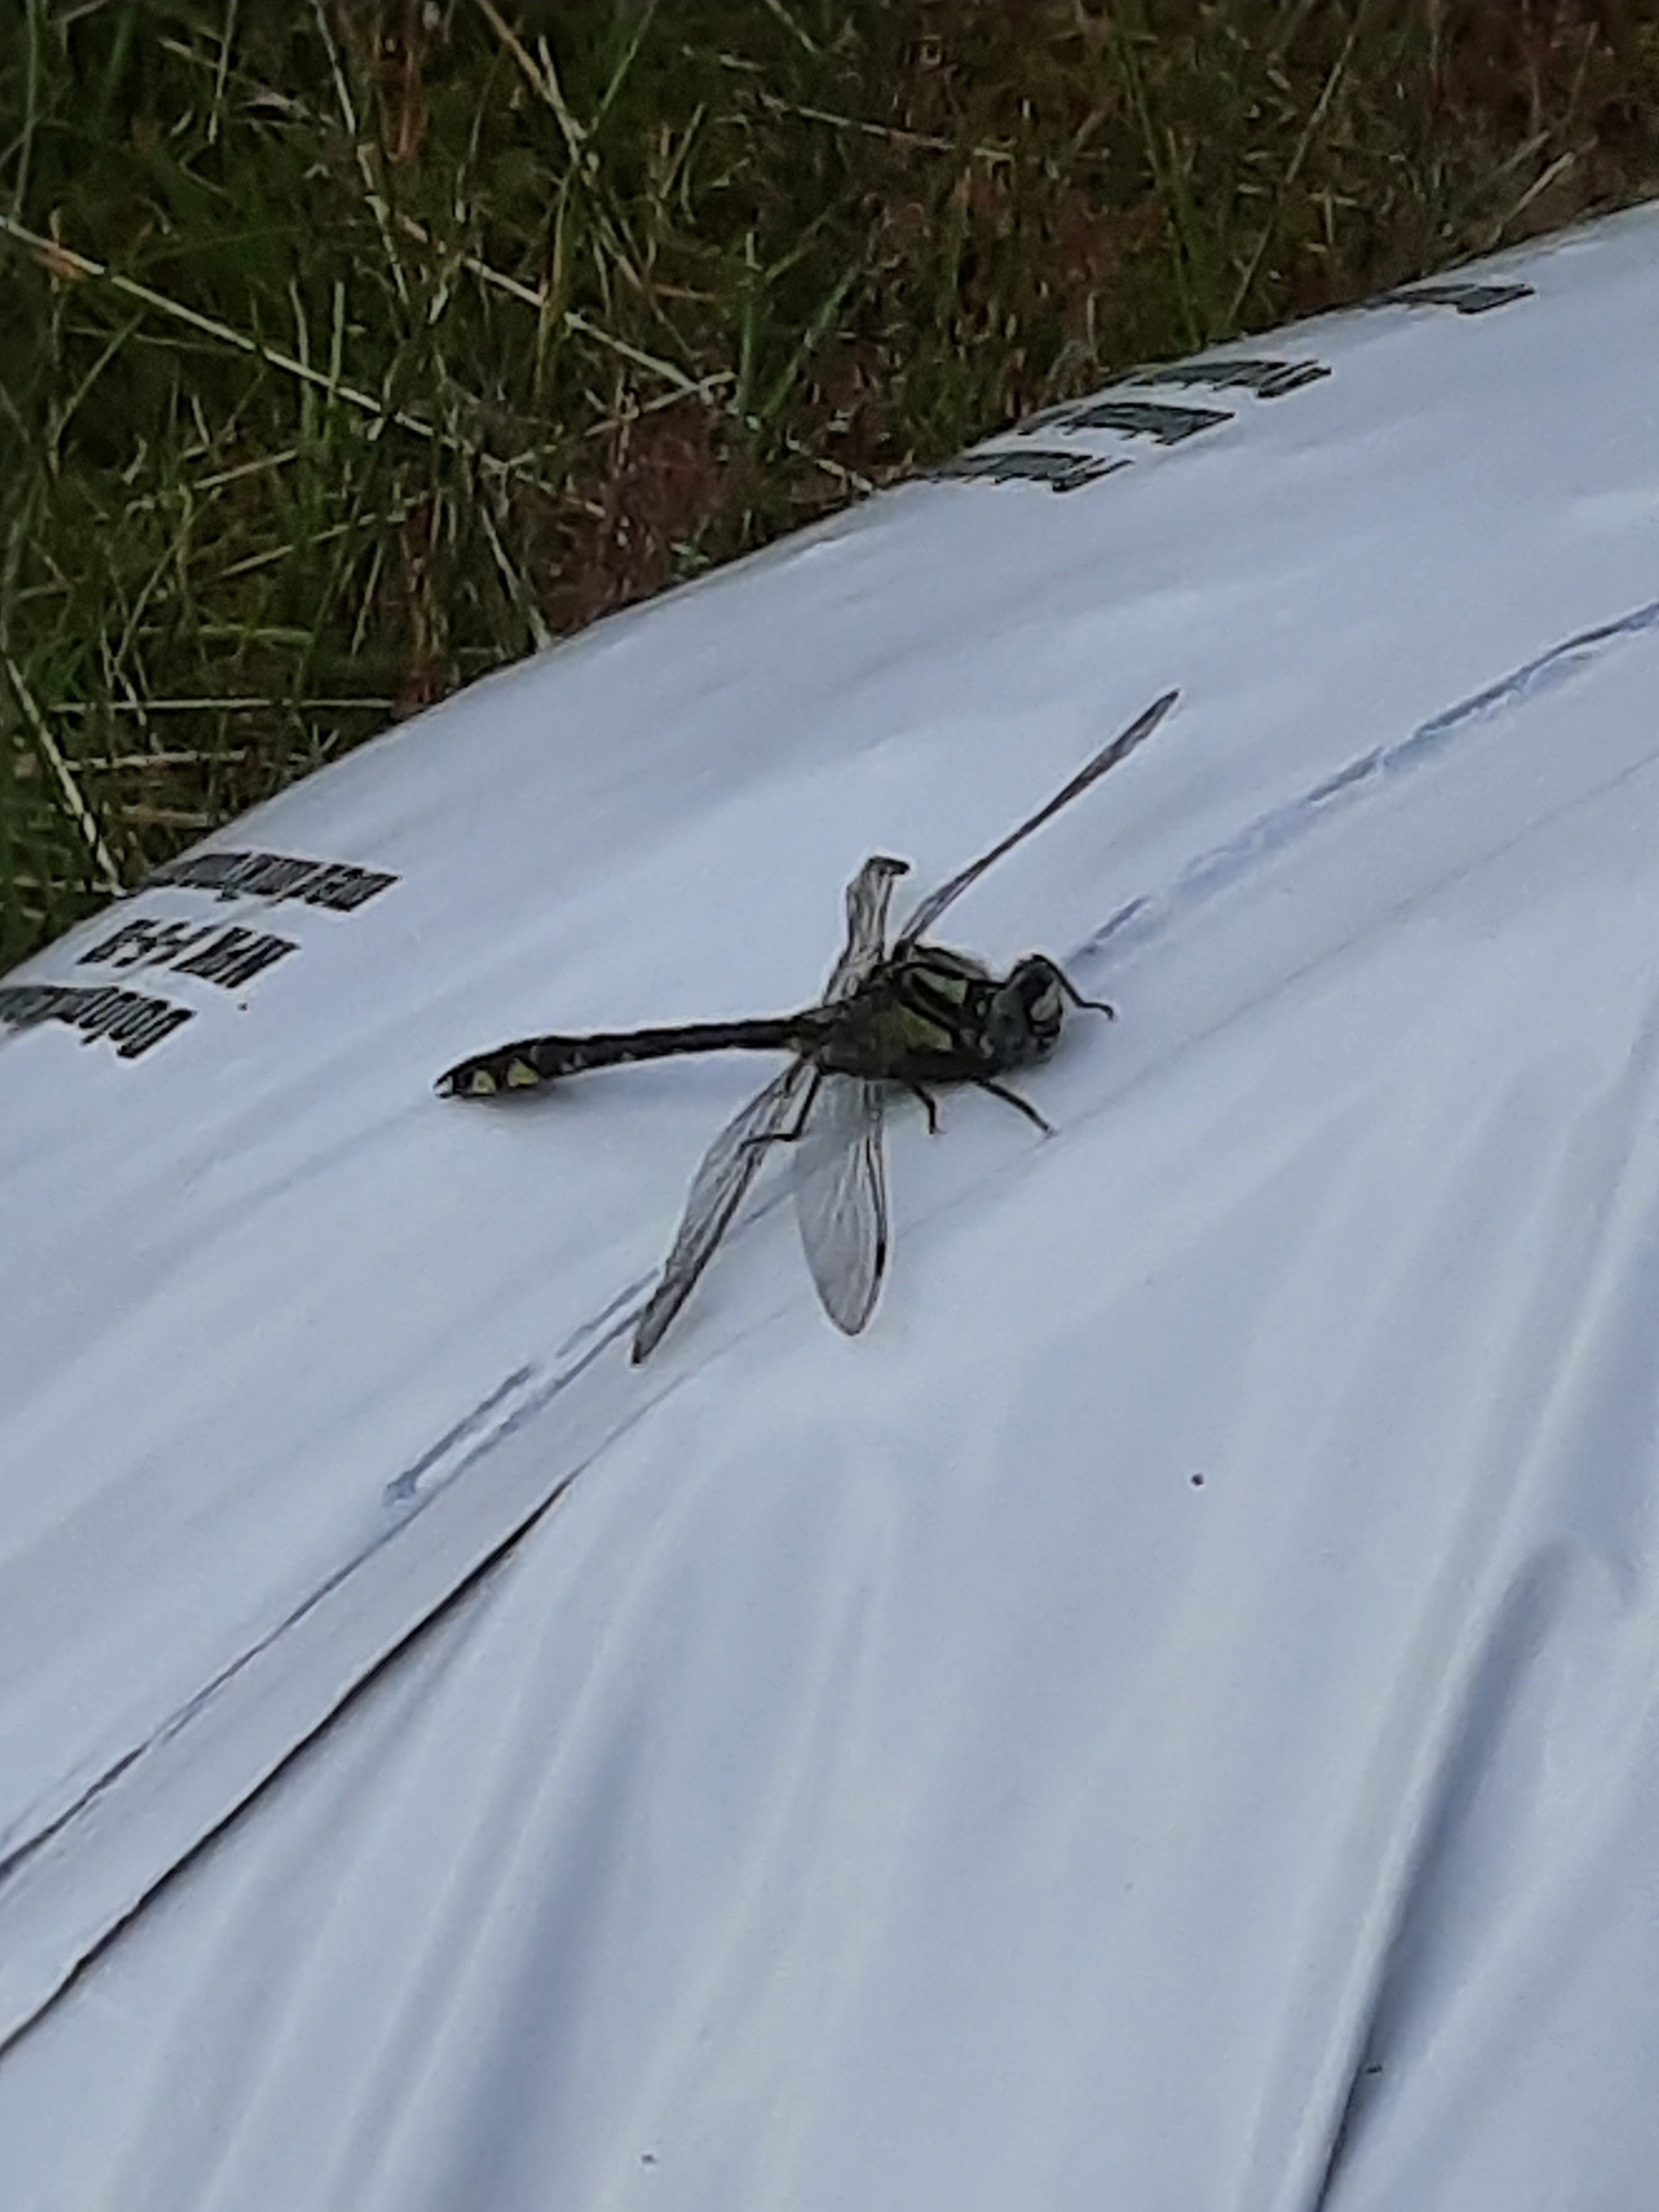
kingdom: Animalia
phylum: Arthropoda
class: Insecta
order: Odonata
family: Gomphidae
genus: Gomphus
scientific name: Gomphus vulgatissimus
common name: Almindelig flodguldsmed
